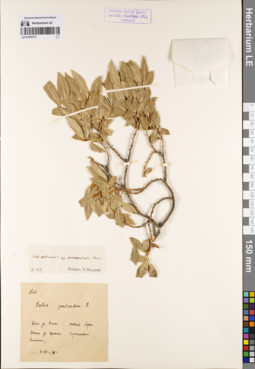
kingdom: Plantae
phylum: Tracheophyta
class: Magnoliopsida
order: Malpighiales
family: Salicaceae
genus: Salix
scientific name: Salix pseudopentandra
